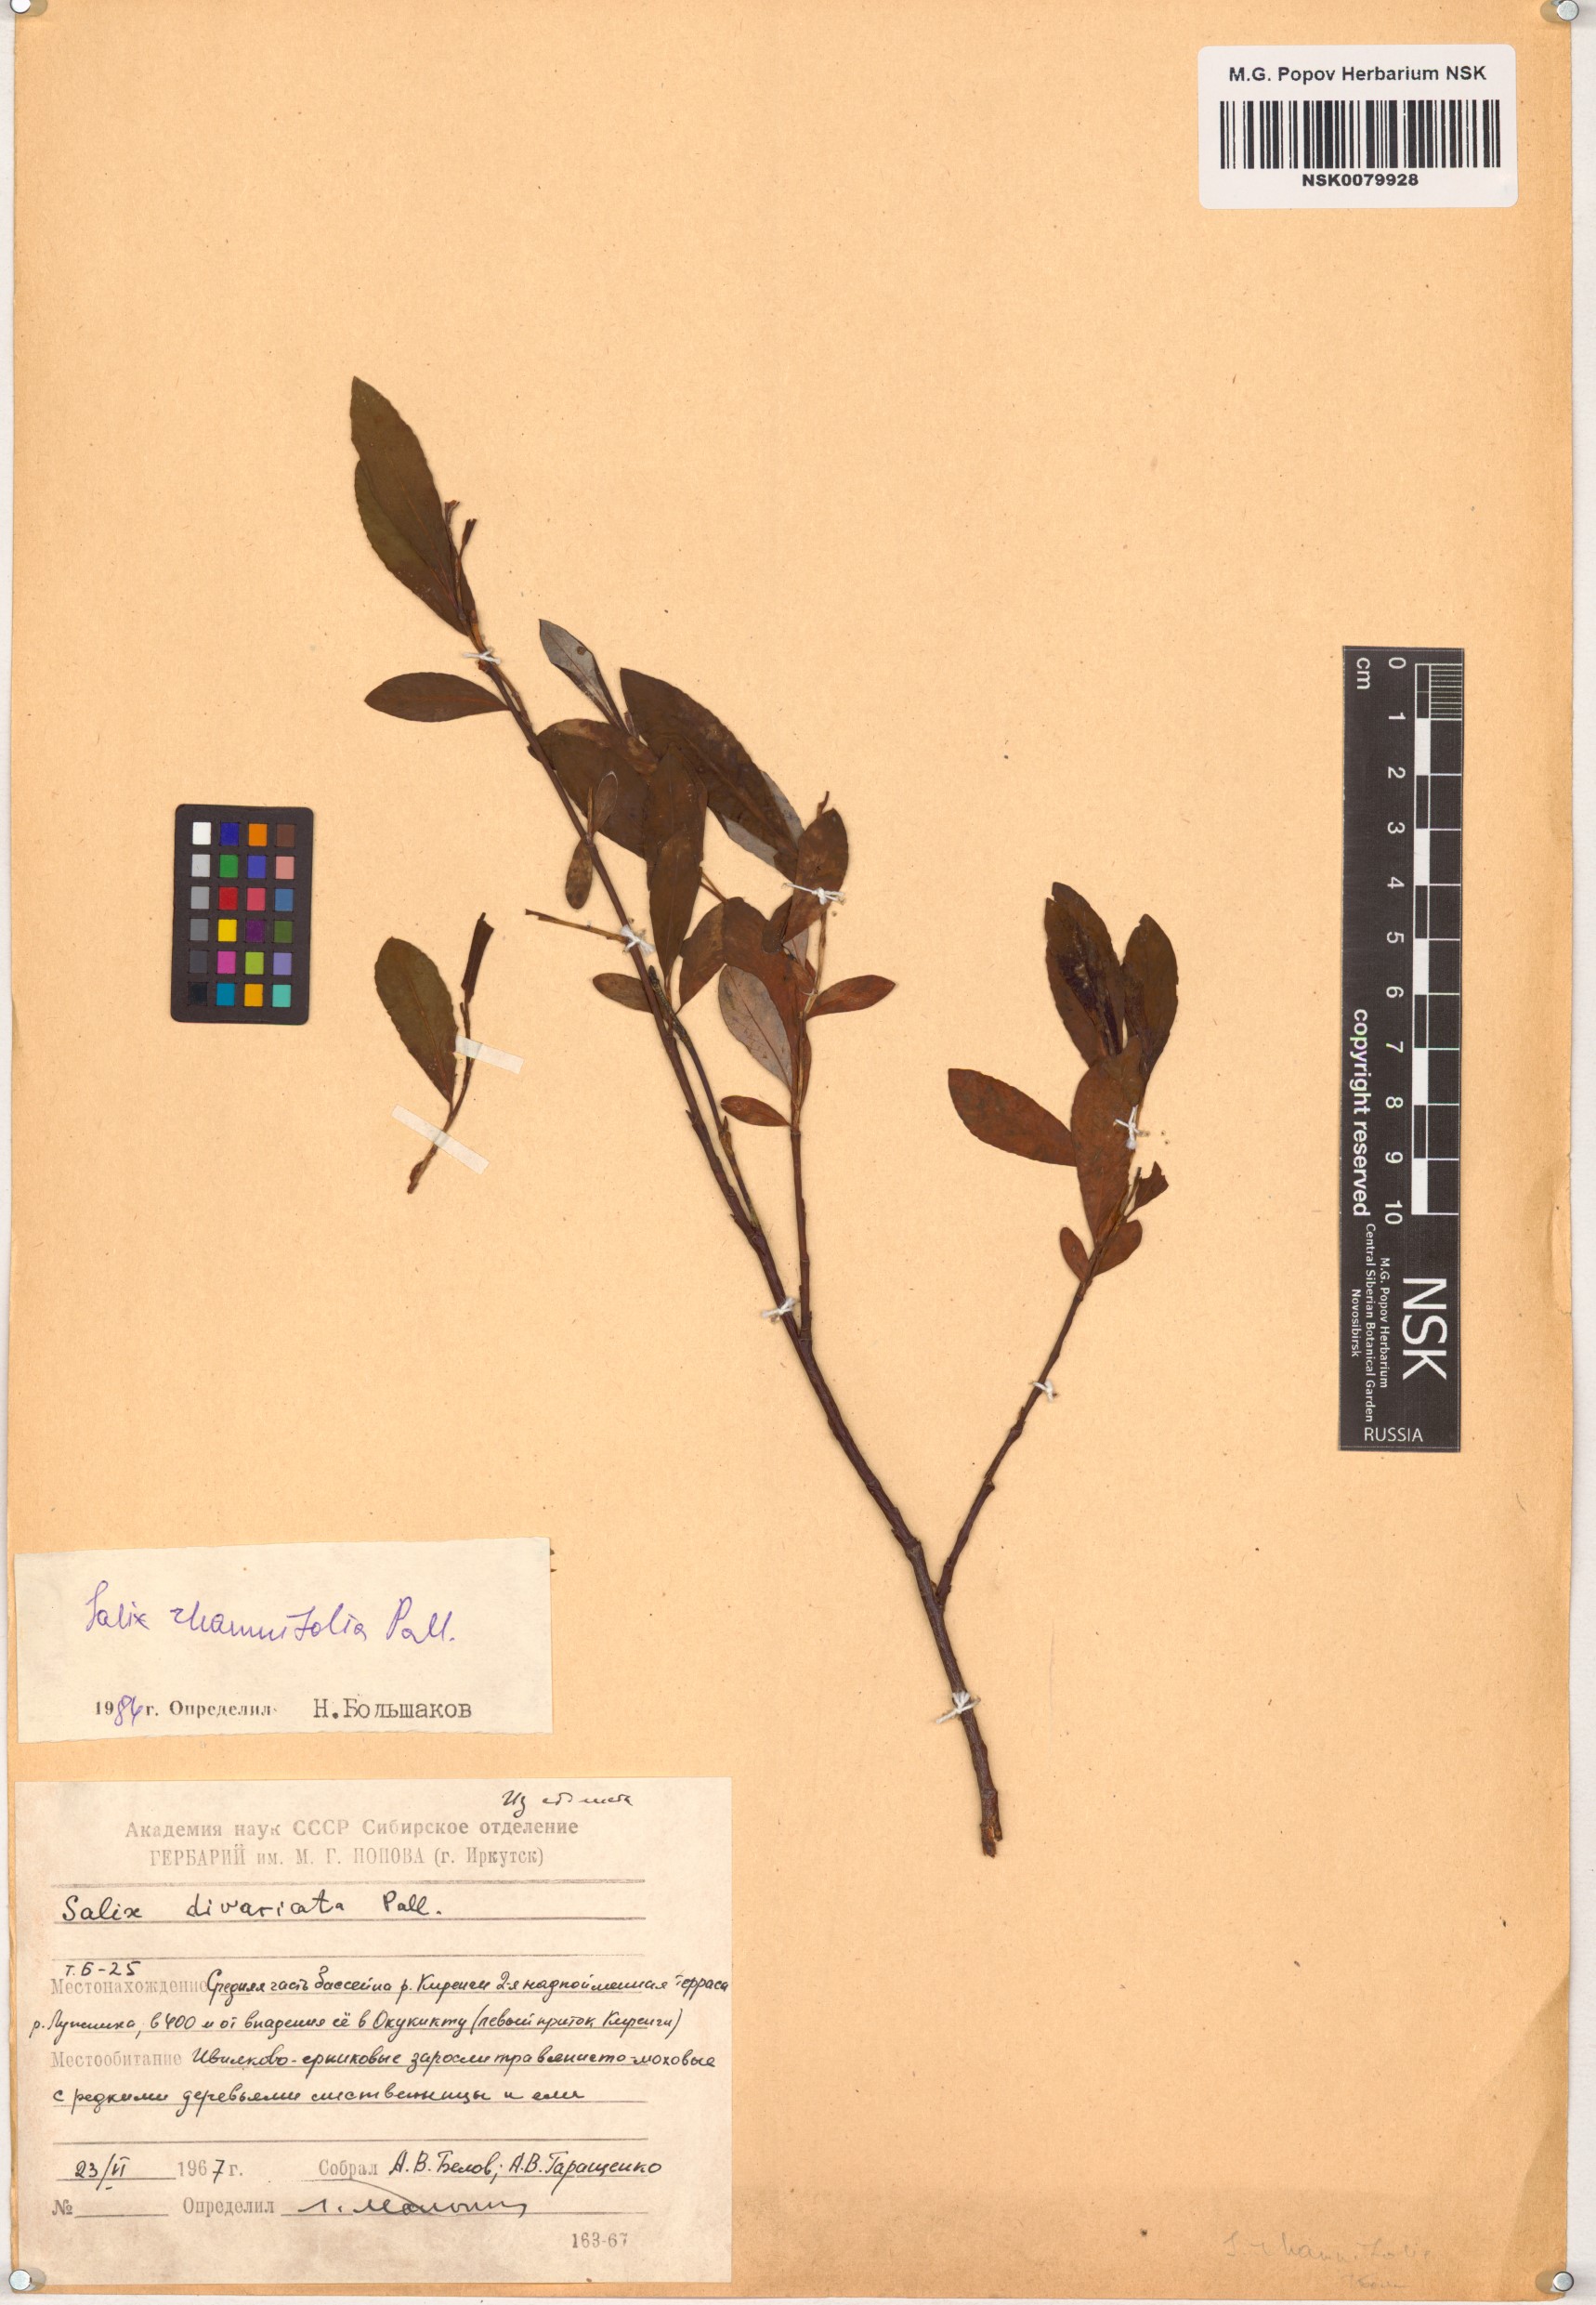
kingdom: Plantae
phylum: Tracheophyta
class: Magnoliopsida
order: Malpighiales
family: Salicaceae
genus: Salix
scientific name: Salix rhamnifolia
